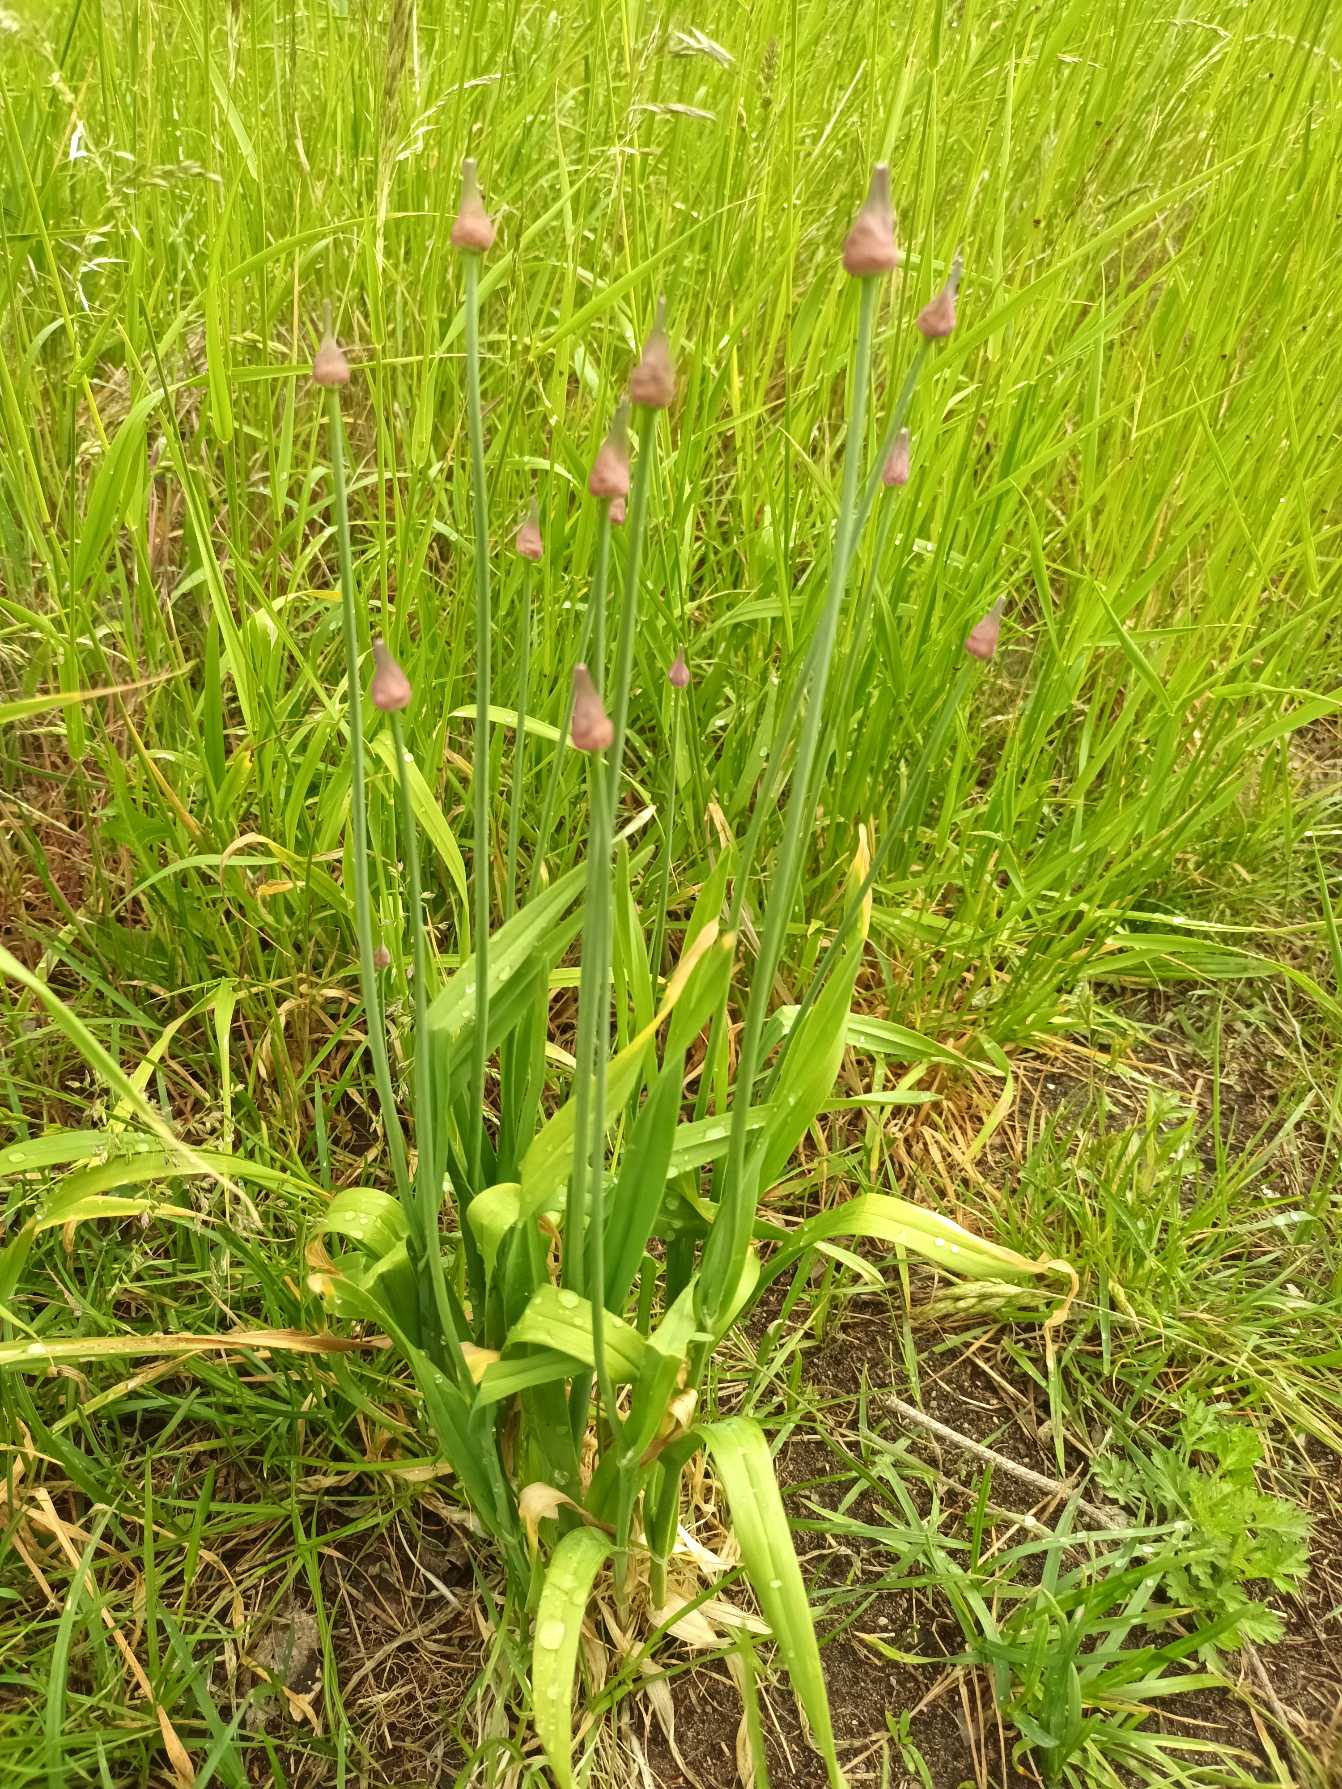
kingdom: Plantae
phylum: Tracheophyta
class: Liliopsida
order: Asparagales
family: Amaryllidaceae
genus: Allium
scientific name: Allium scorodoprasum
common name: Skov-løg
